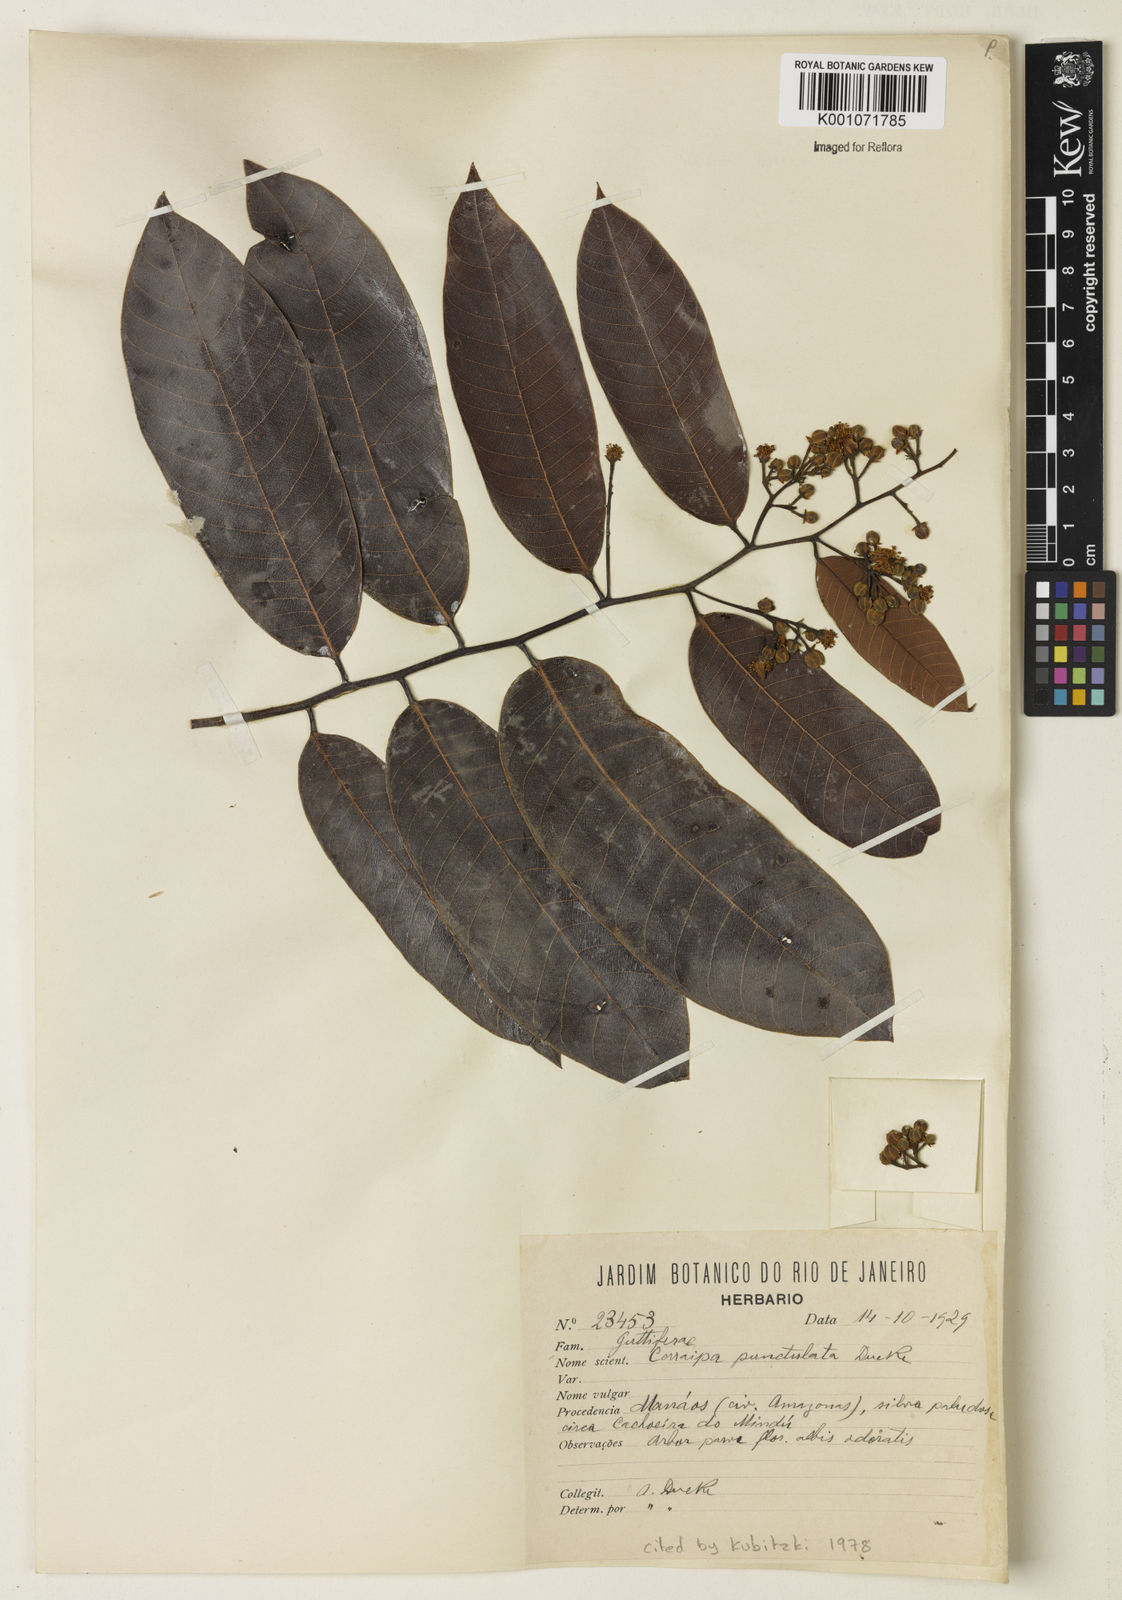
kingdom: Plantae
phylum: Tracheophyta
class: Magnoliopsida
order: Malpighiales
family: Calophyllaceae
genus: Caraipa
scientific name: Caraipa punctulata
